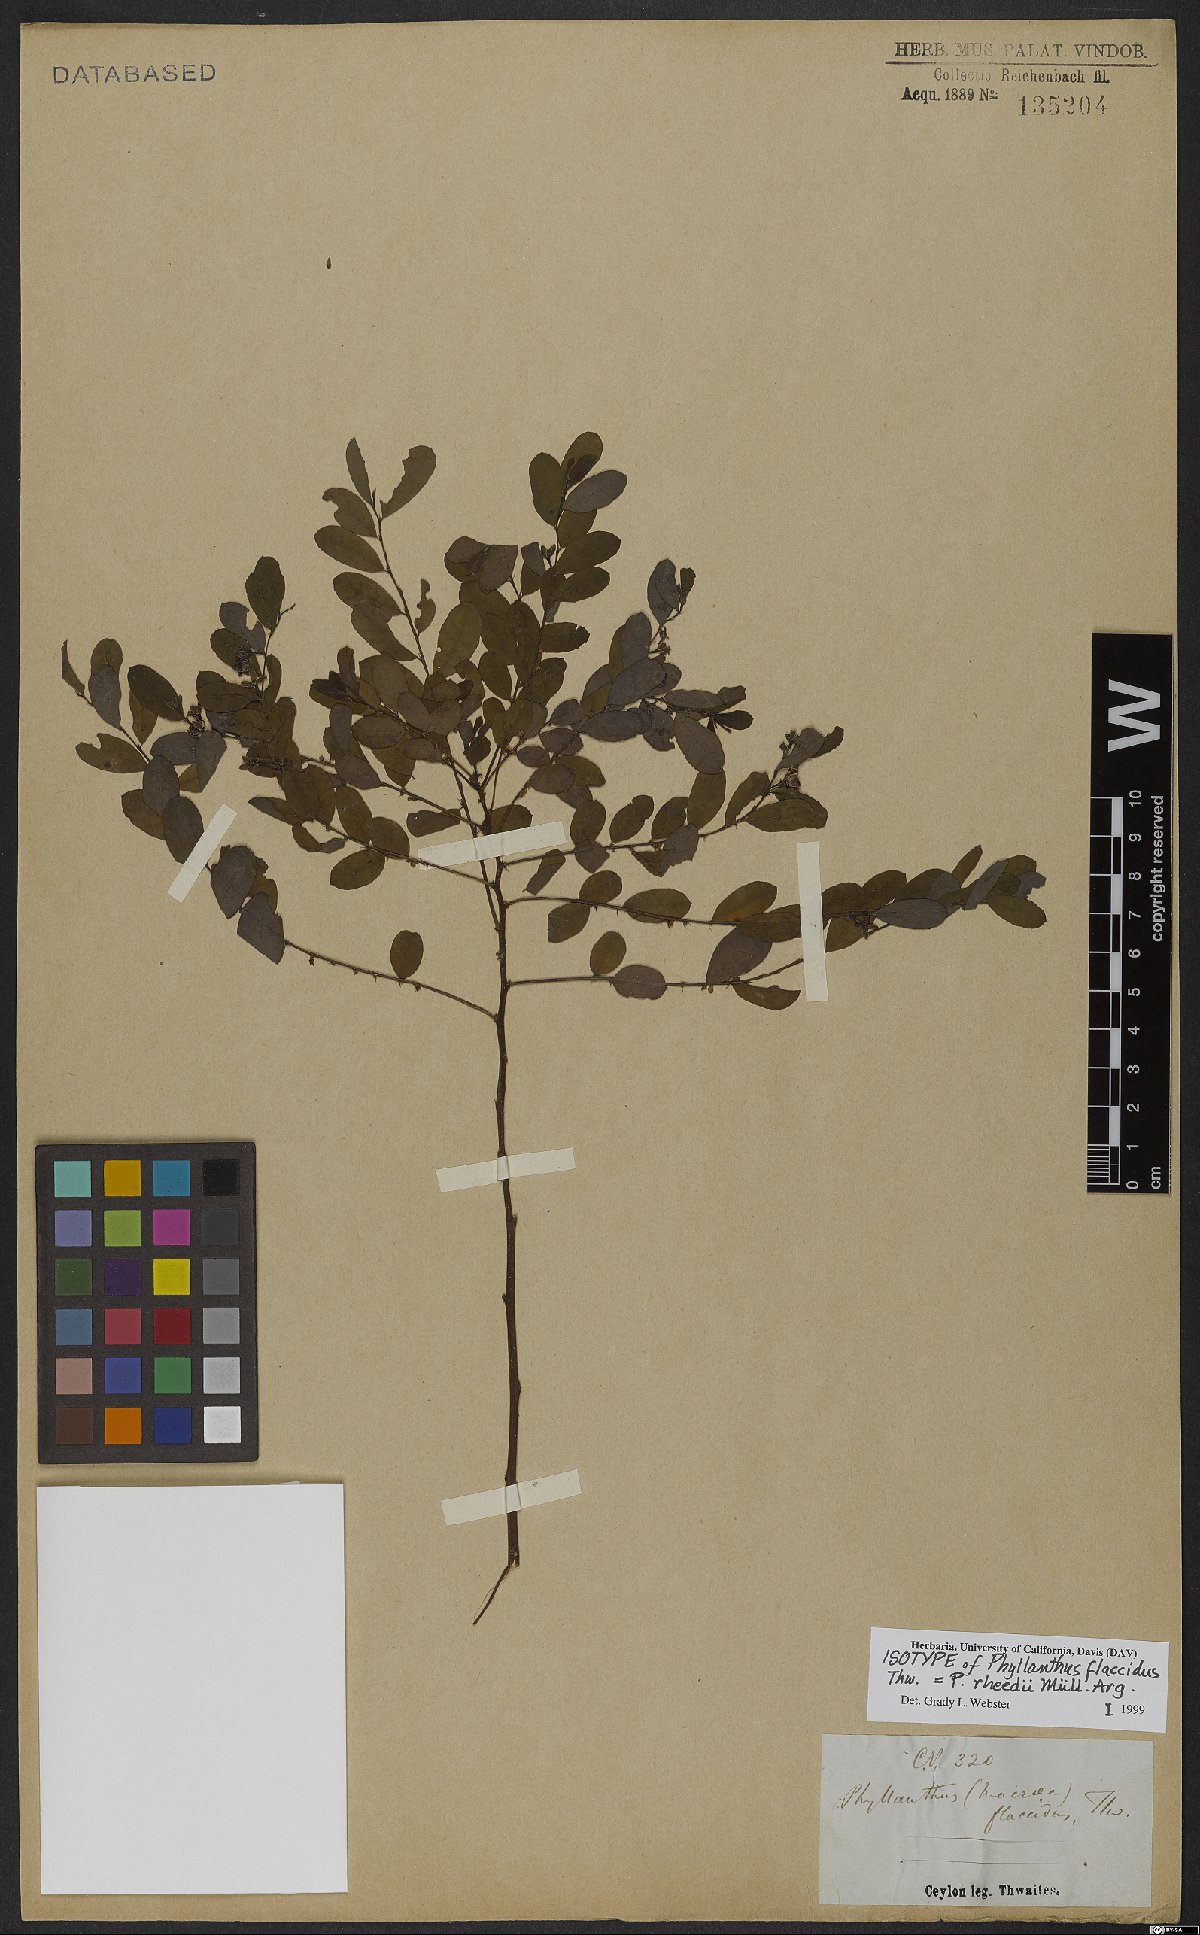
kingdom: Plantae
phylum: Tracheophyta
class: Magnoliopsida
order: Malpighiales
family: Phyllanthaceae
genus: Phyllanthus
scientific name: Phyllanthus rheedei
